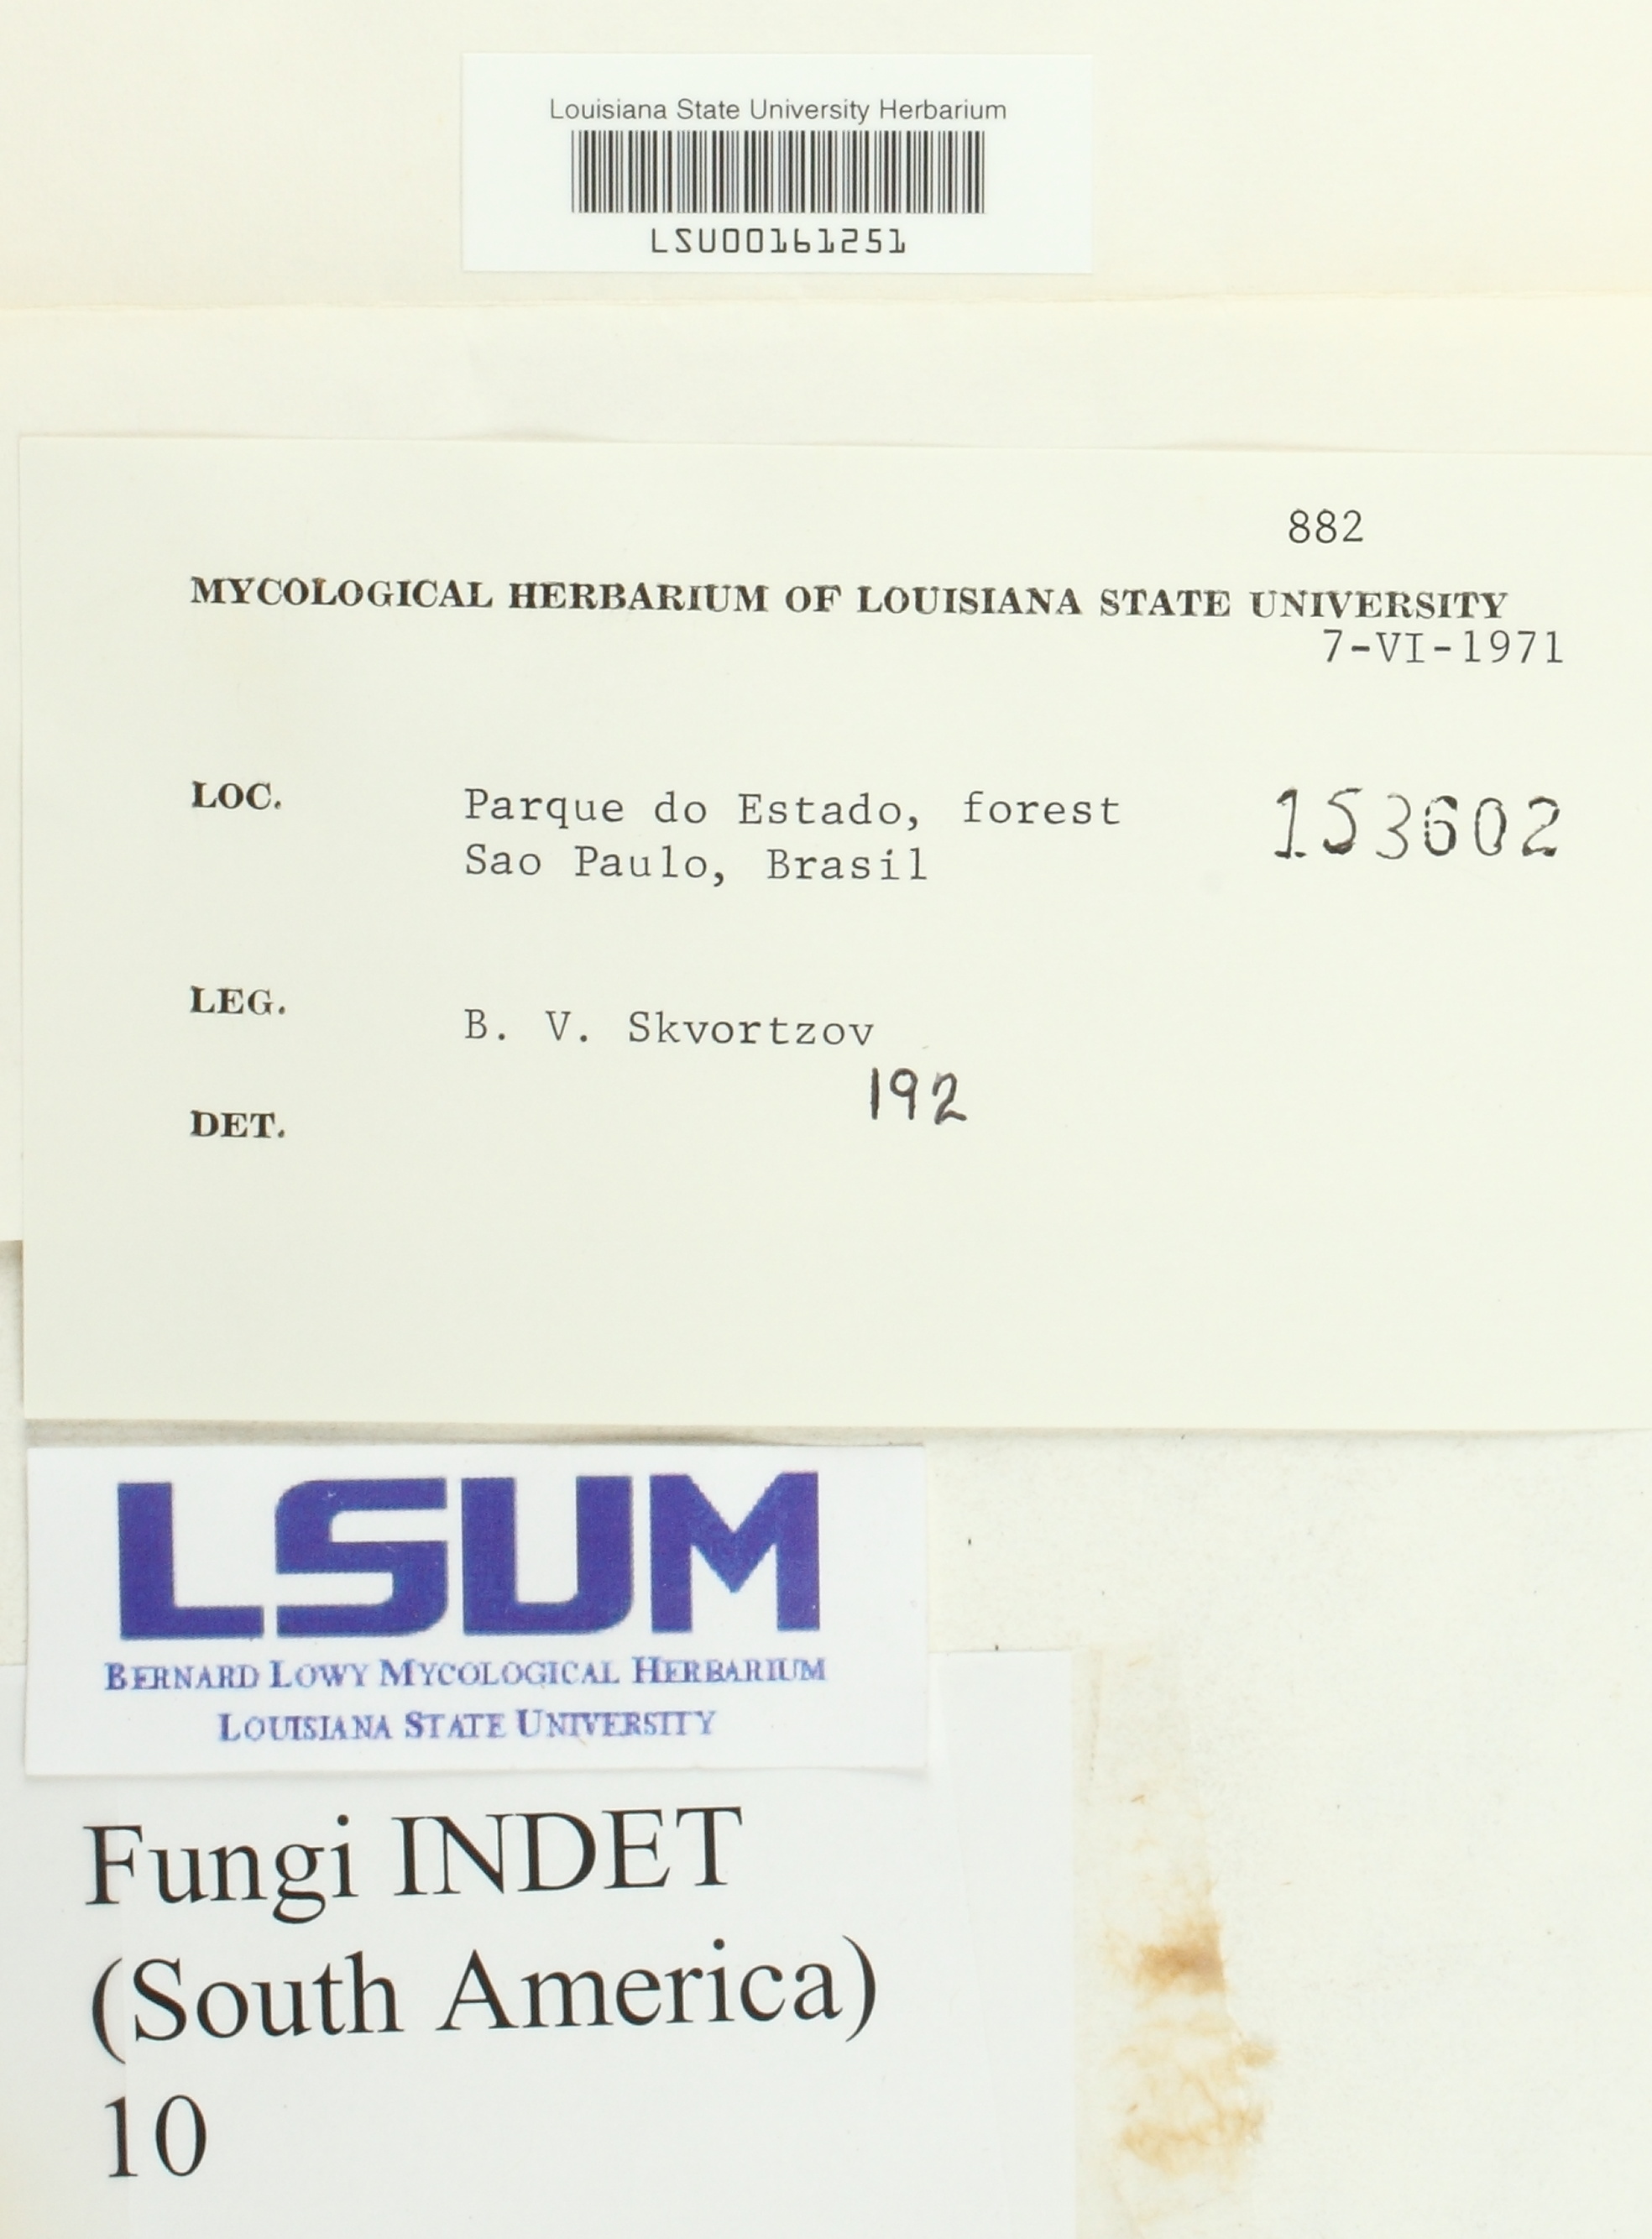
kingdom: Fungi
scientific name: Fungi
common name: Fungi
